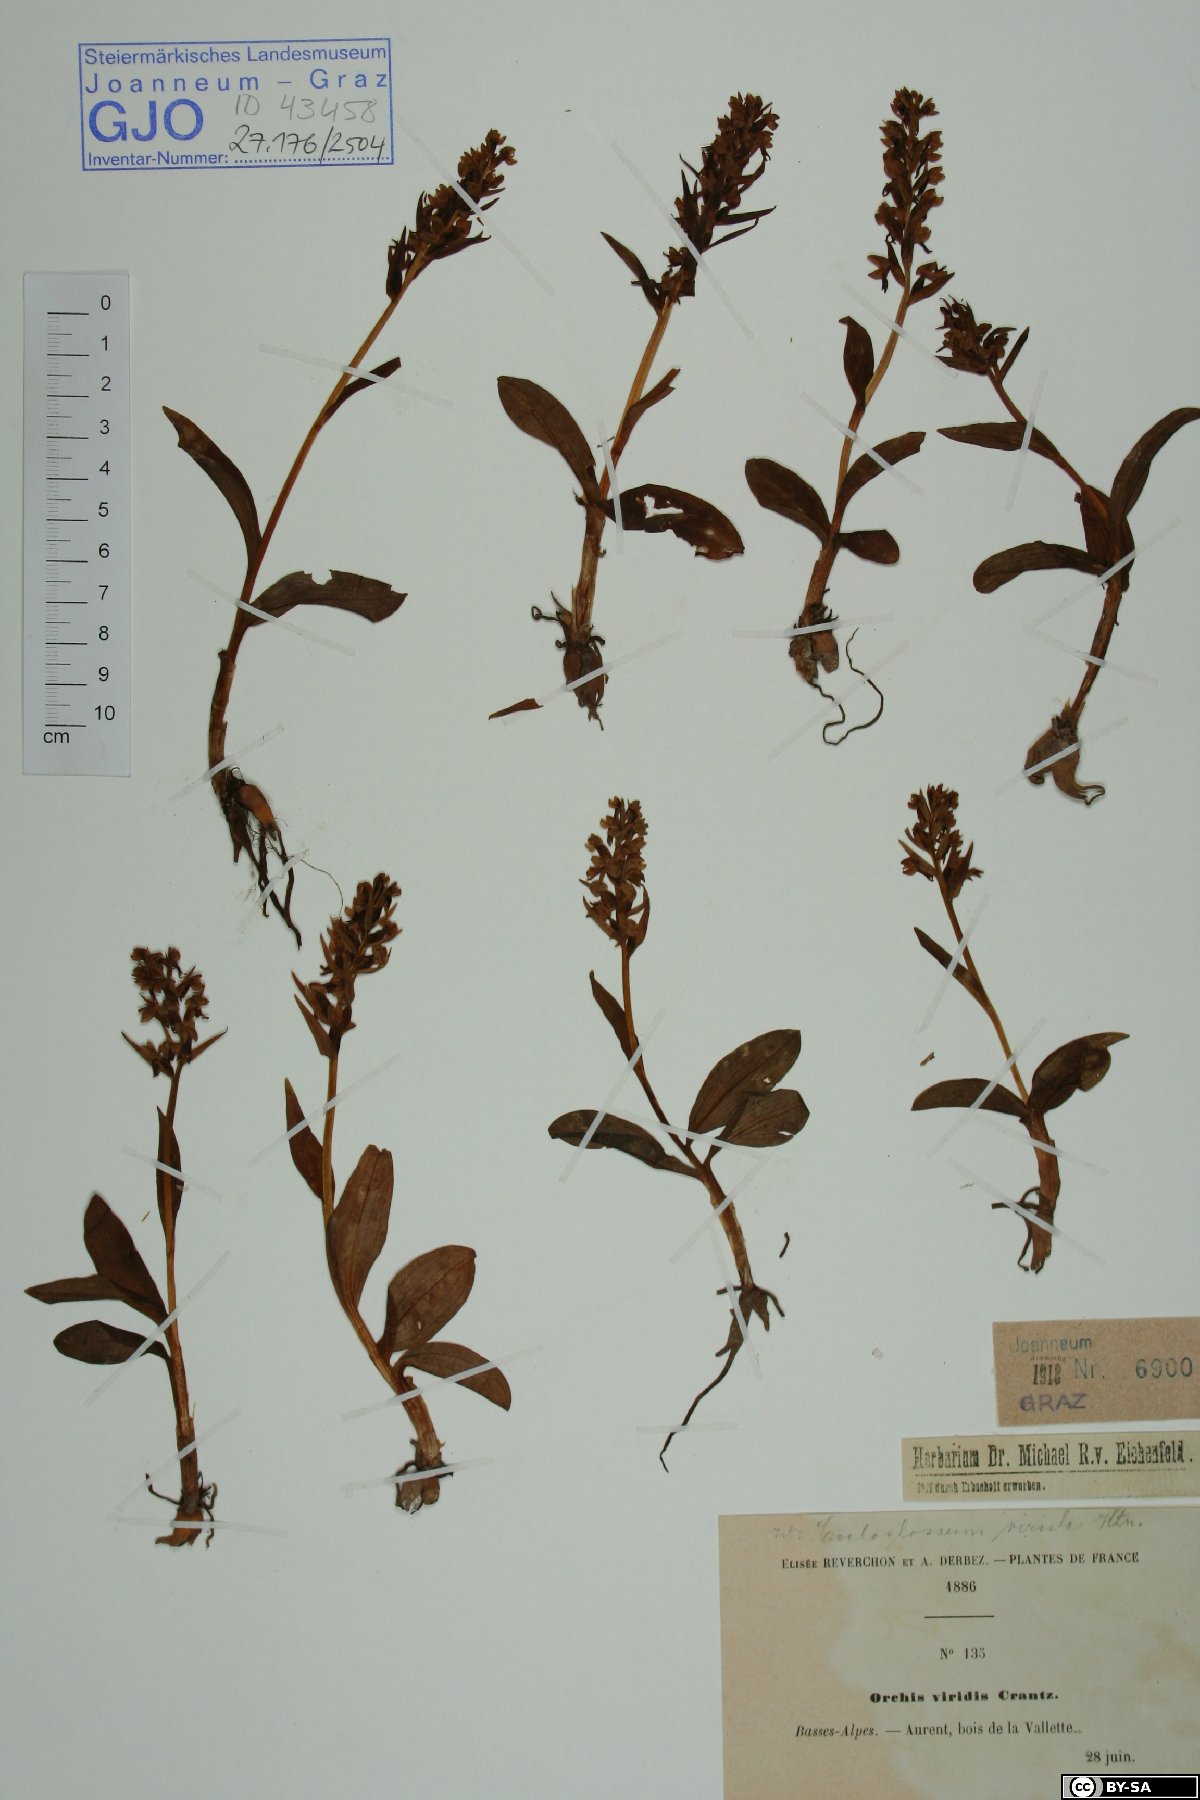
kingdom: Plantae
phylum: Tracheophyta
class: Liliopsida
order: Asparagales
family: Orchidaceae
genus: Dactylorhiza
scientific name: Dactylorhiza viridis
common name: Longbract frog orchid
